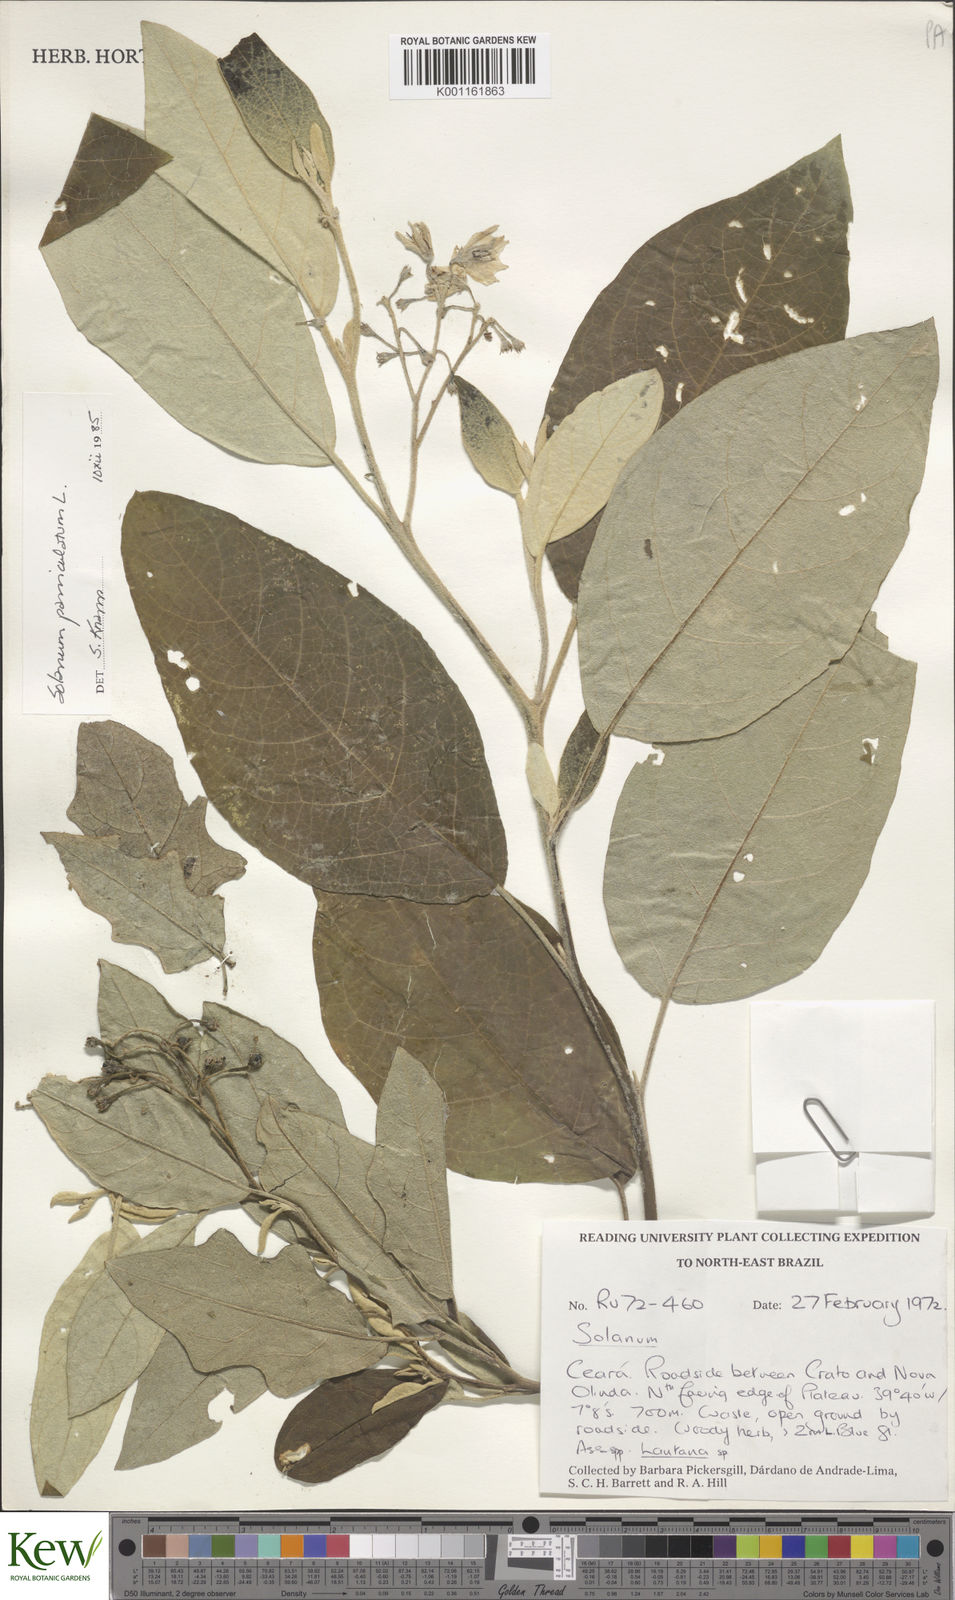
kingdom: Plantae
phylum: Tracheophyta
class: Magnoliopsida
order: Solanales
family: Solanaceae
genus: Solanum
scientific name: Solanum paniculatum
